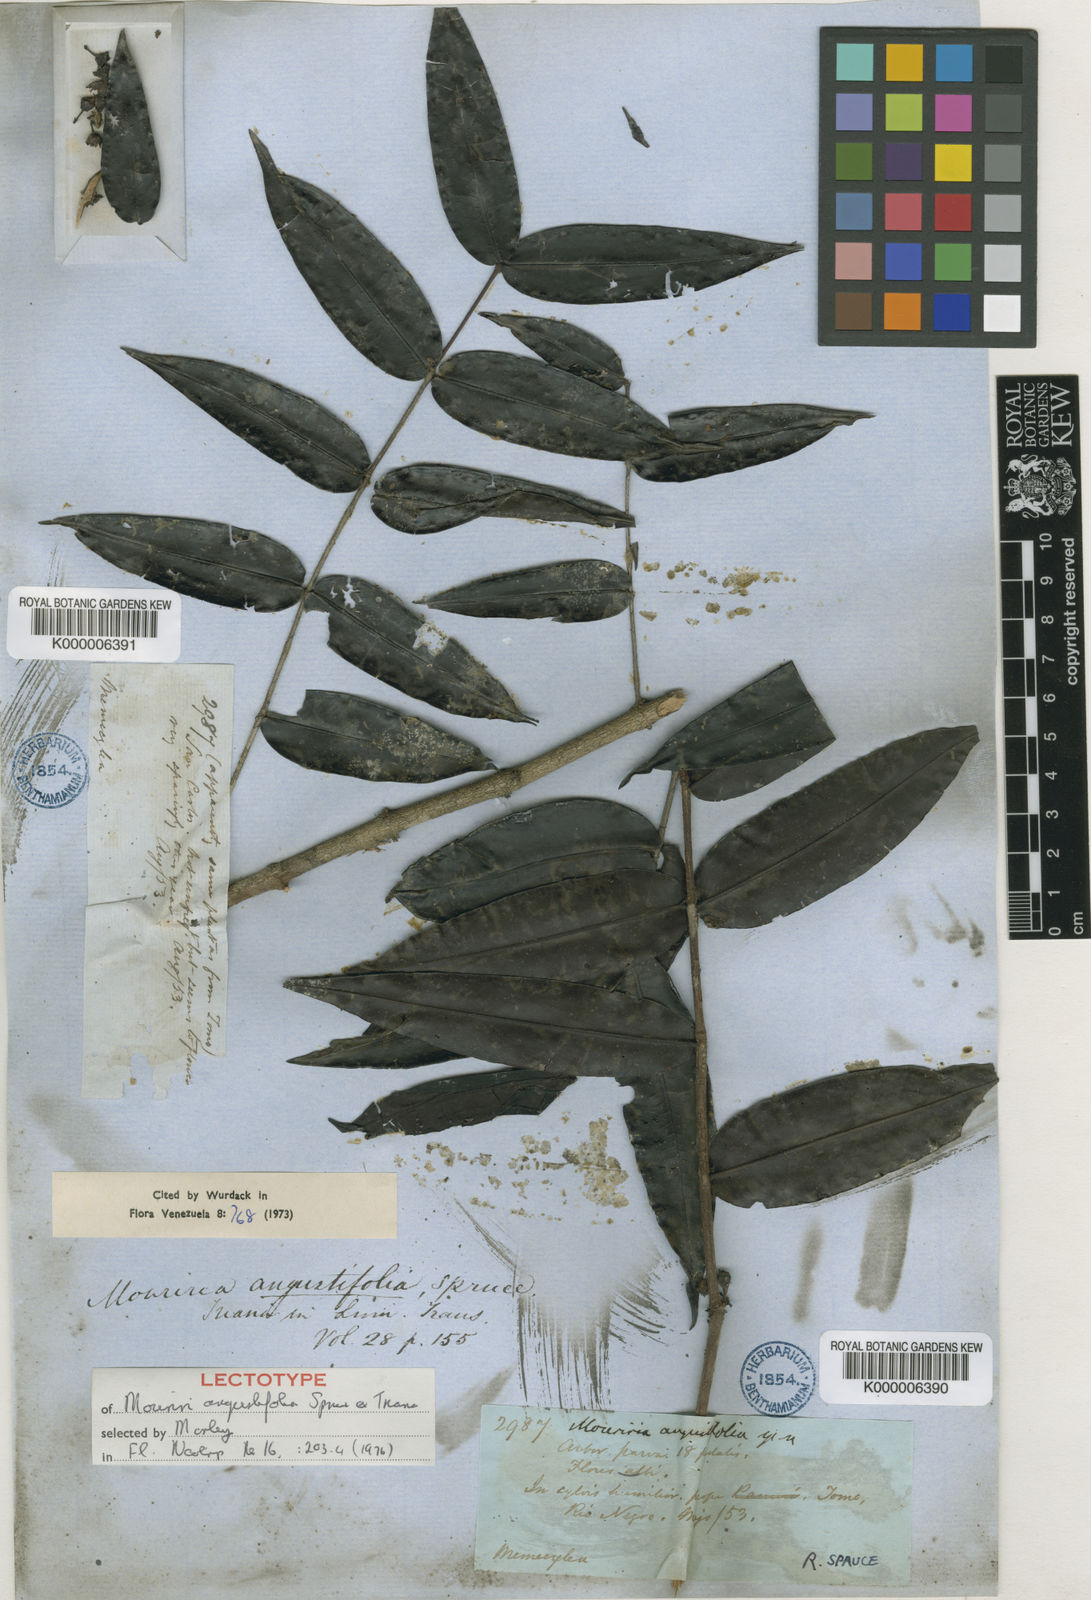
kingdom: Plantae
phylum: Tracheophyta
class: Magnoliopsida
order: Myrtales
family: Melastomataceae
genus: Mouriri
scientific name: Mouriri angustifolia
